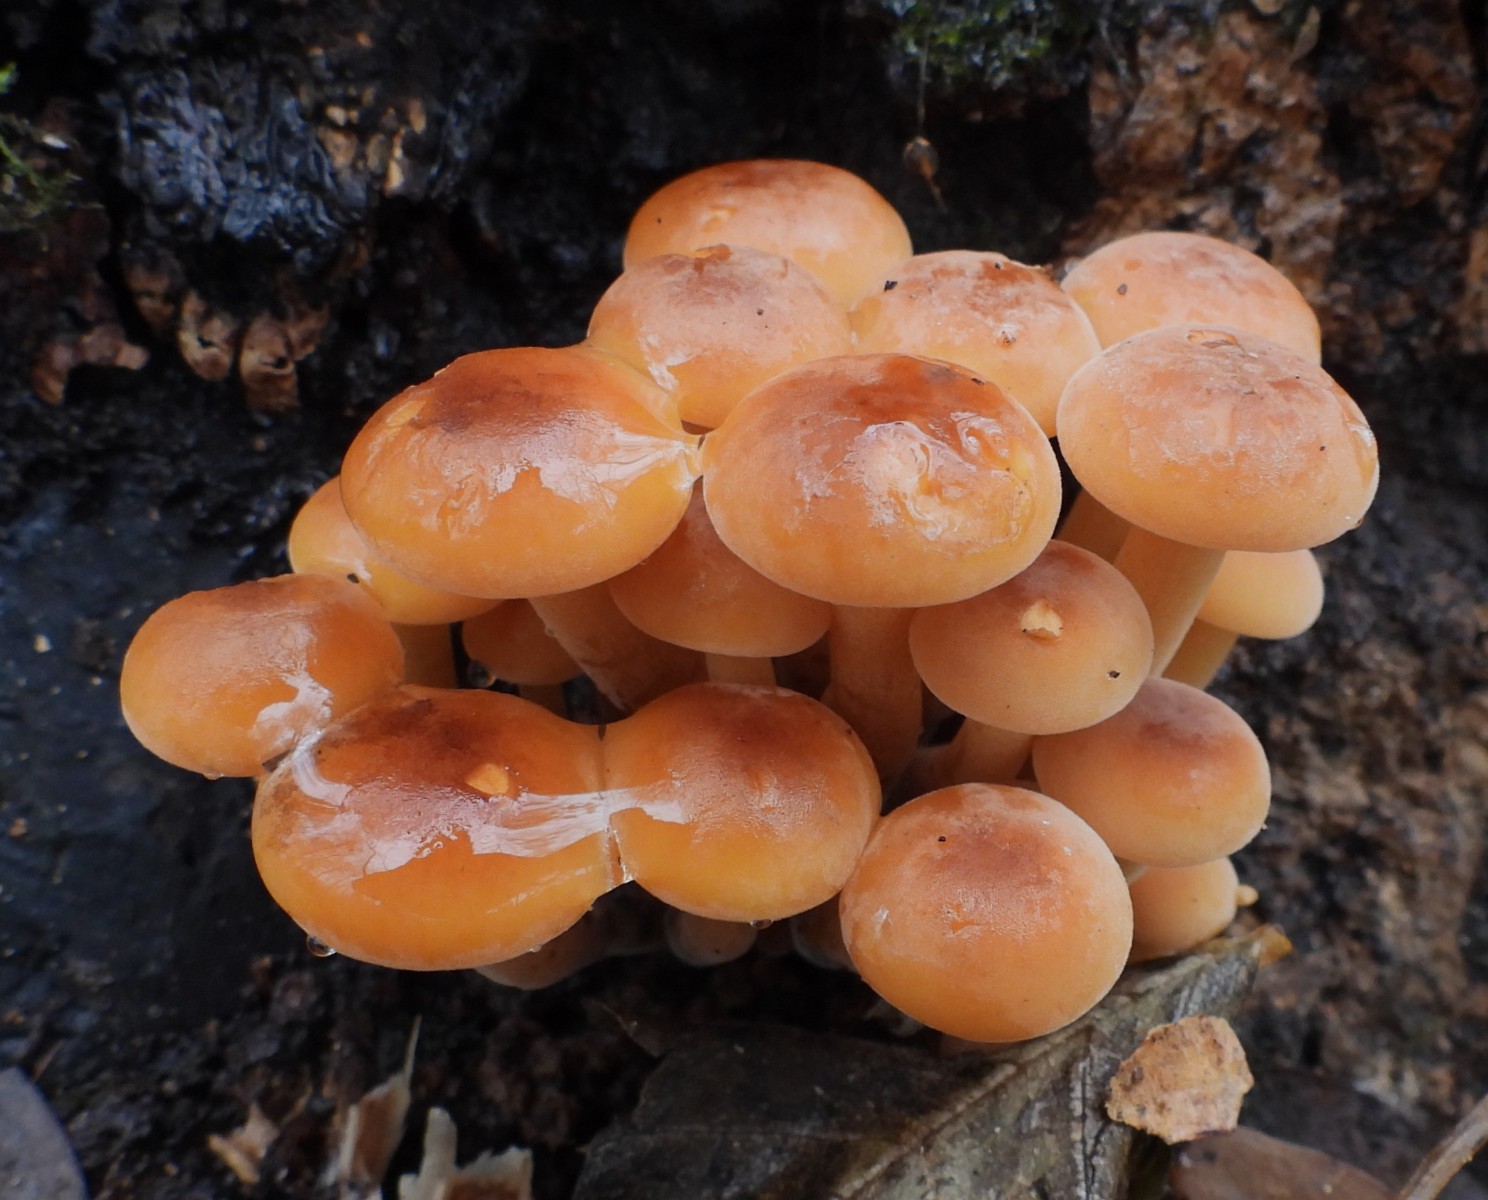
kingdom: Fungi
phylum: Basidiomycota
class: Agaricomycetes
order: Agaricales
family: Physalacriaceae
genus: Flammulina
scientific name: Flammulina velutipes
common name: gul fløjlsfod
